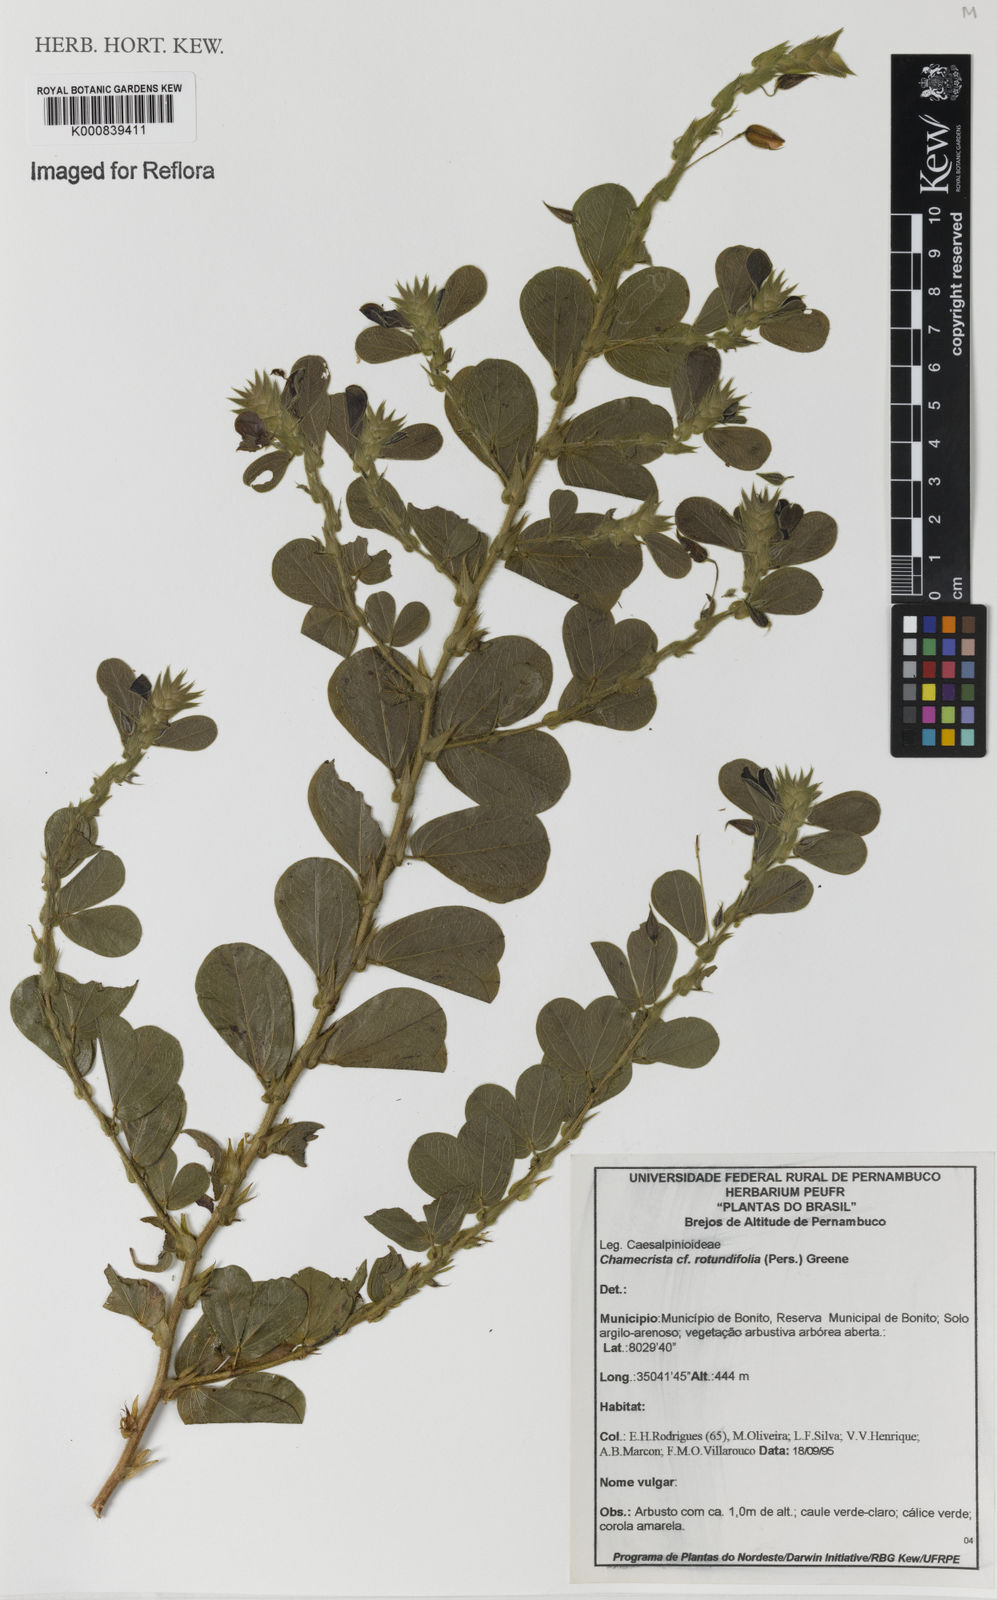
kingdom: Plantae
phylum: Tracheophyta
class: Magnoliopsida
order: Fabales
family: Fabaceae
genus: Chamaecrista
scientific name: Chamaecrista rotundifolia
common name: Round-leaf cassia
